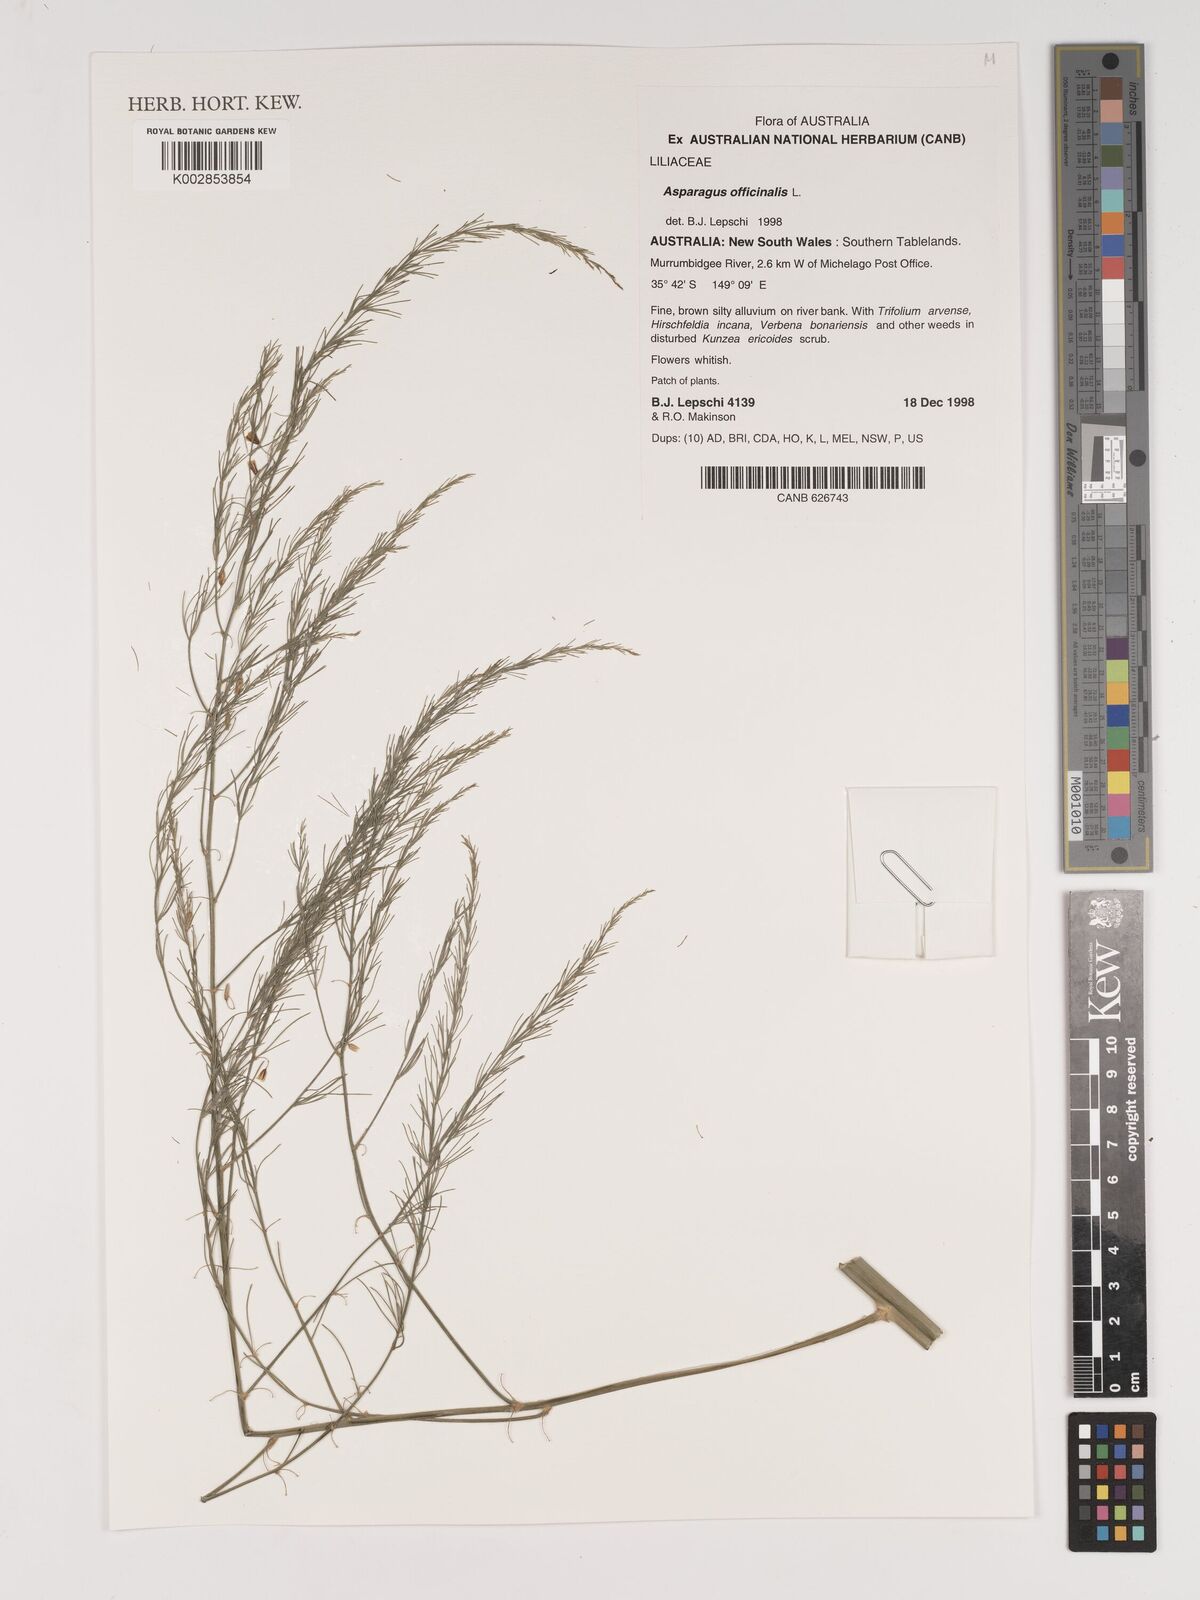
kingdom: Plantae
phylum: Tracheophyta
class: Liliopsida
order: Asparagales
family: Asparagaceae
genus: Asparagus
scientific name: Asparagus officinalis
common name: Garden asparagus
